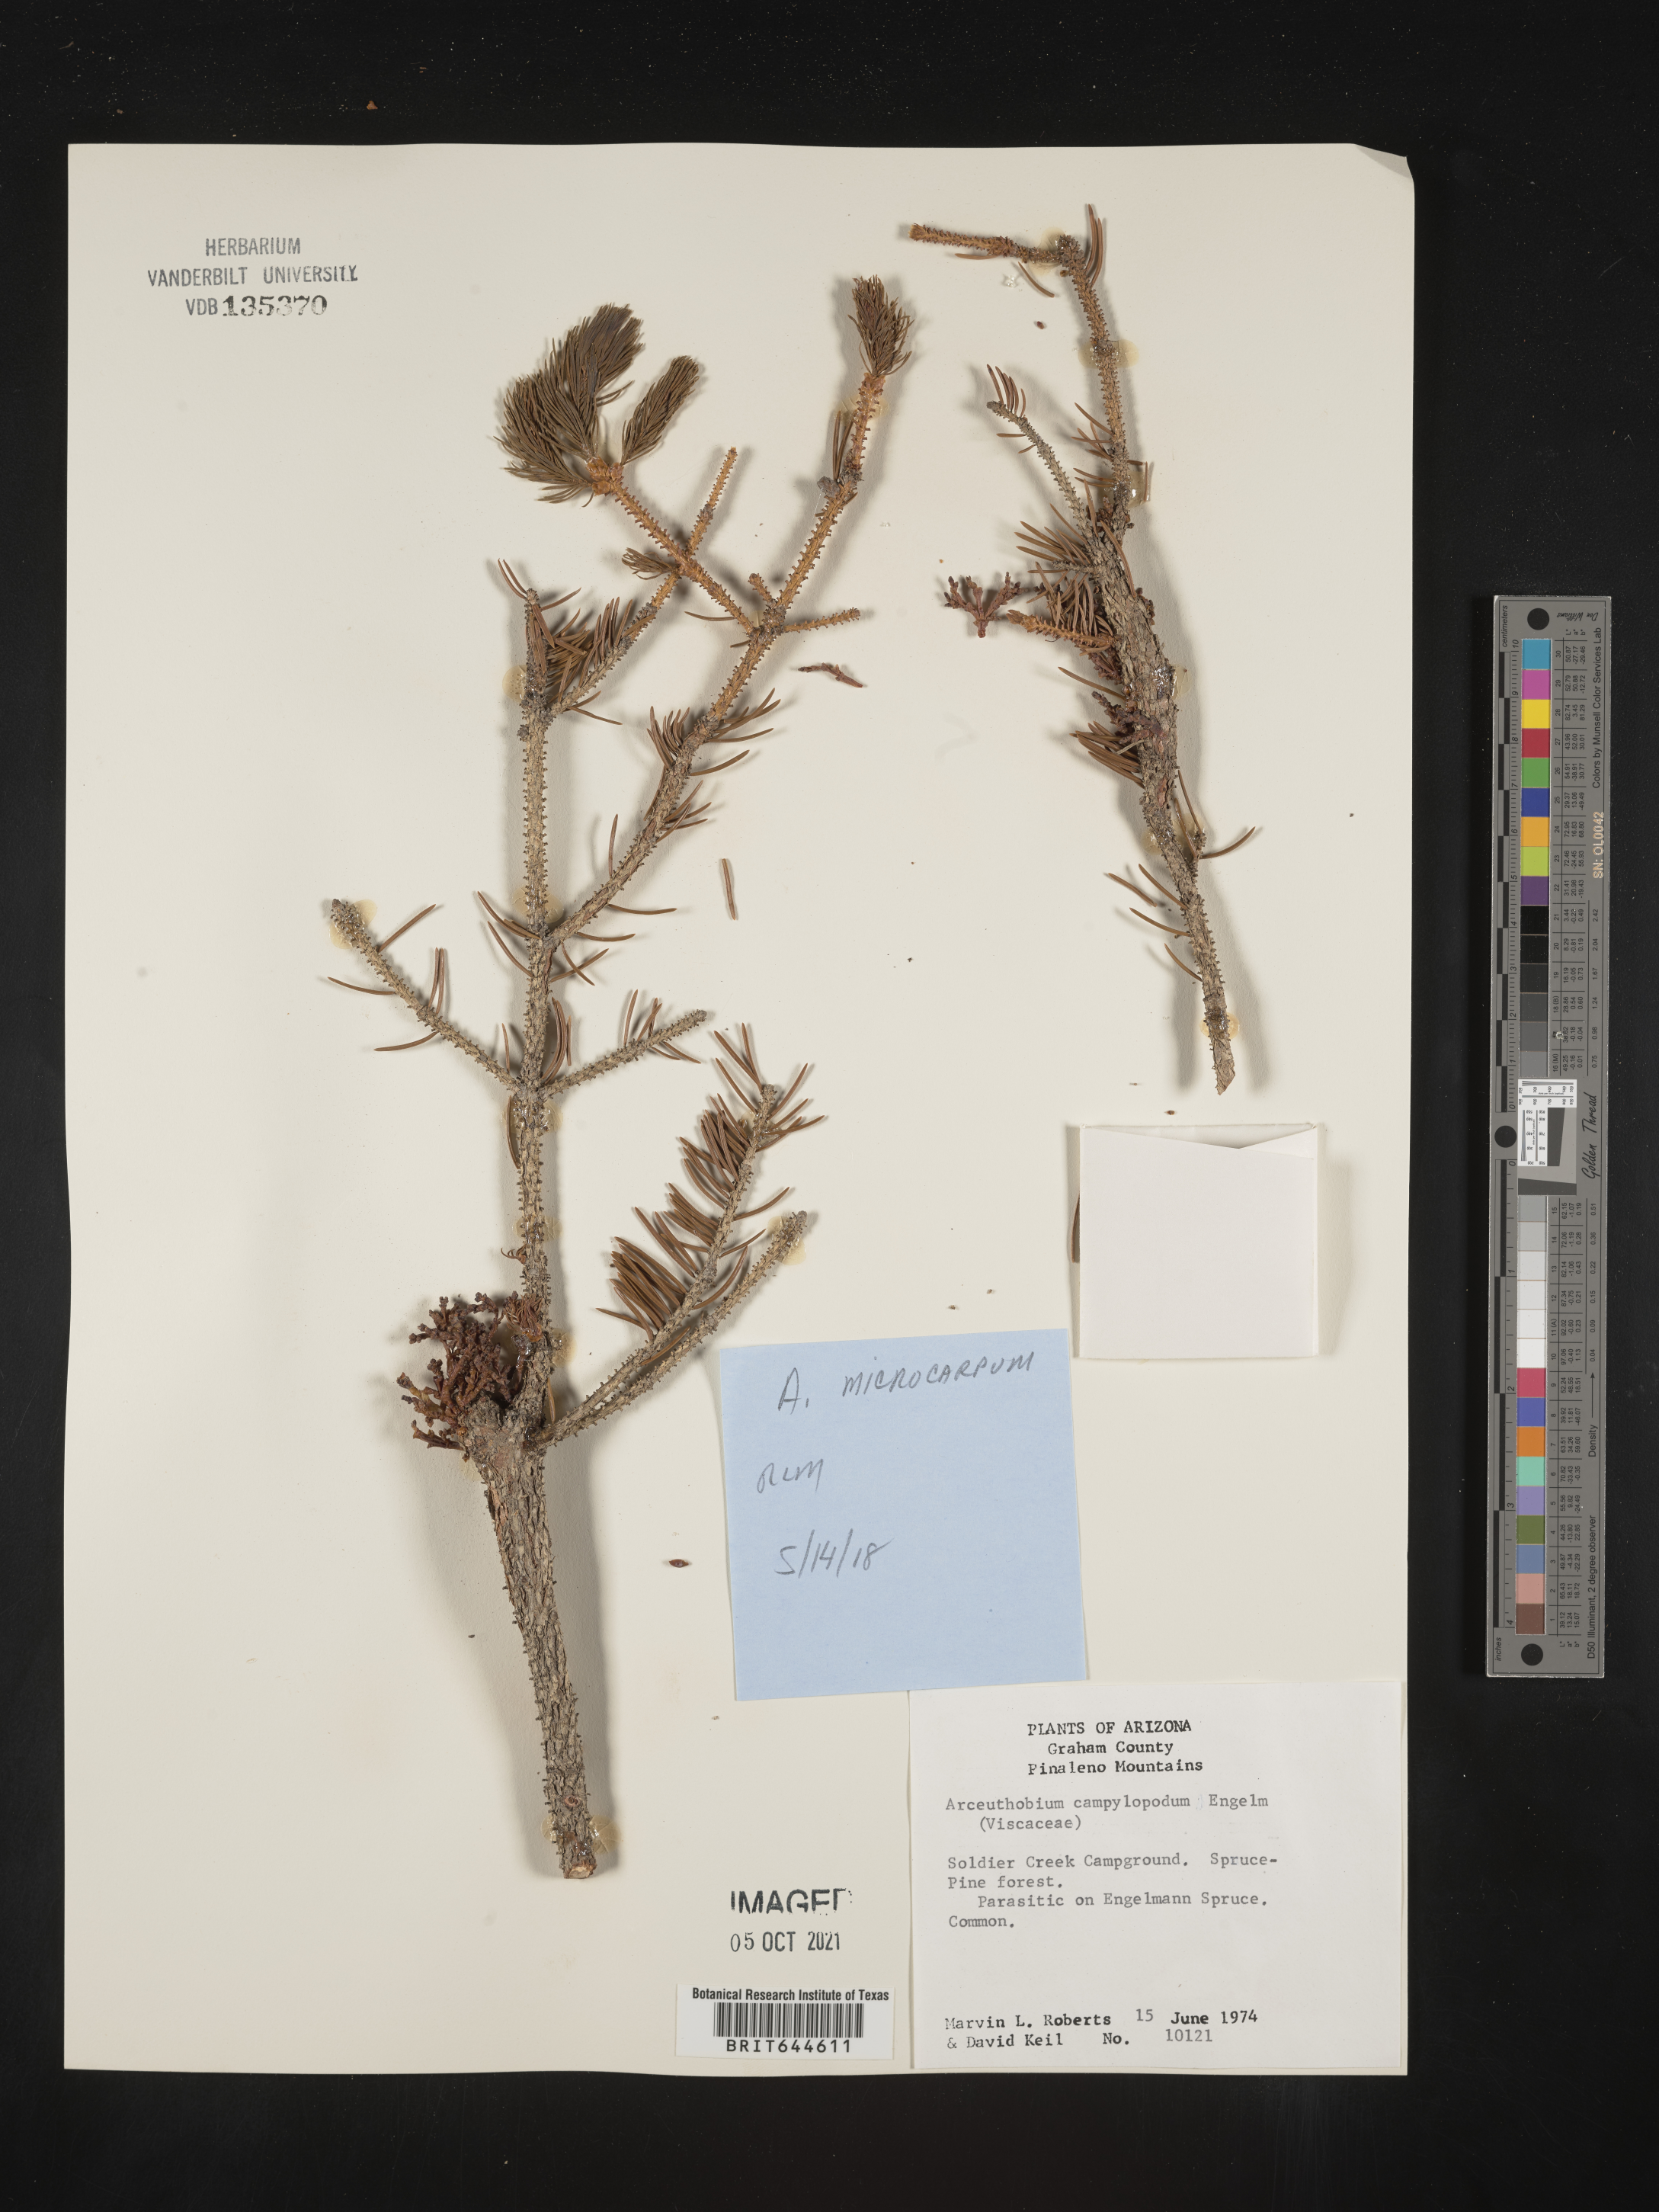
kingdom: Plantae
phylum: Tracheophyta
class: Magnoliopsida
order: Santalales
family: Viscaceae
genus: Arceuthobium
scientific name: Arceuthobium campylopodum
